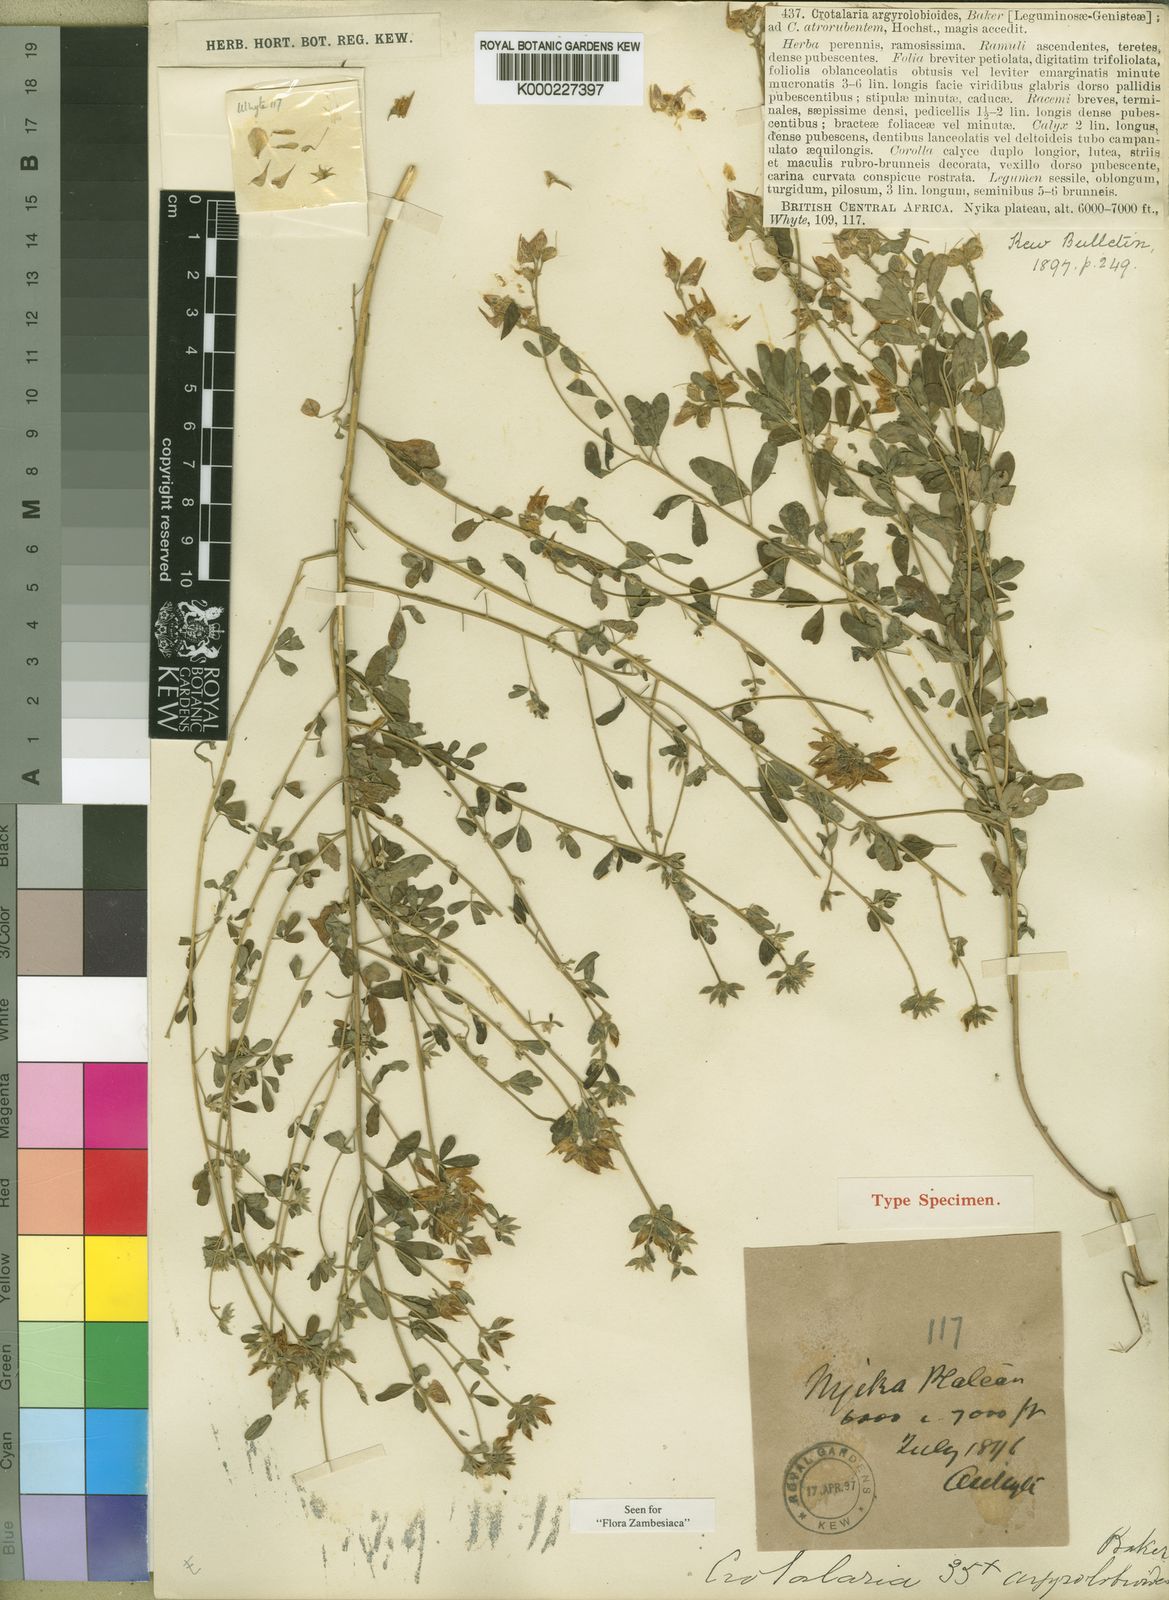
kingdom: Plantae
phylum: Tracheophyta
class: Magnoliopsida
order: Fabales
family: Fabaceae
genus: Crotalaria
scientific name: Crotalaria argyrolobioides
